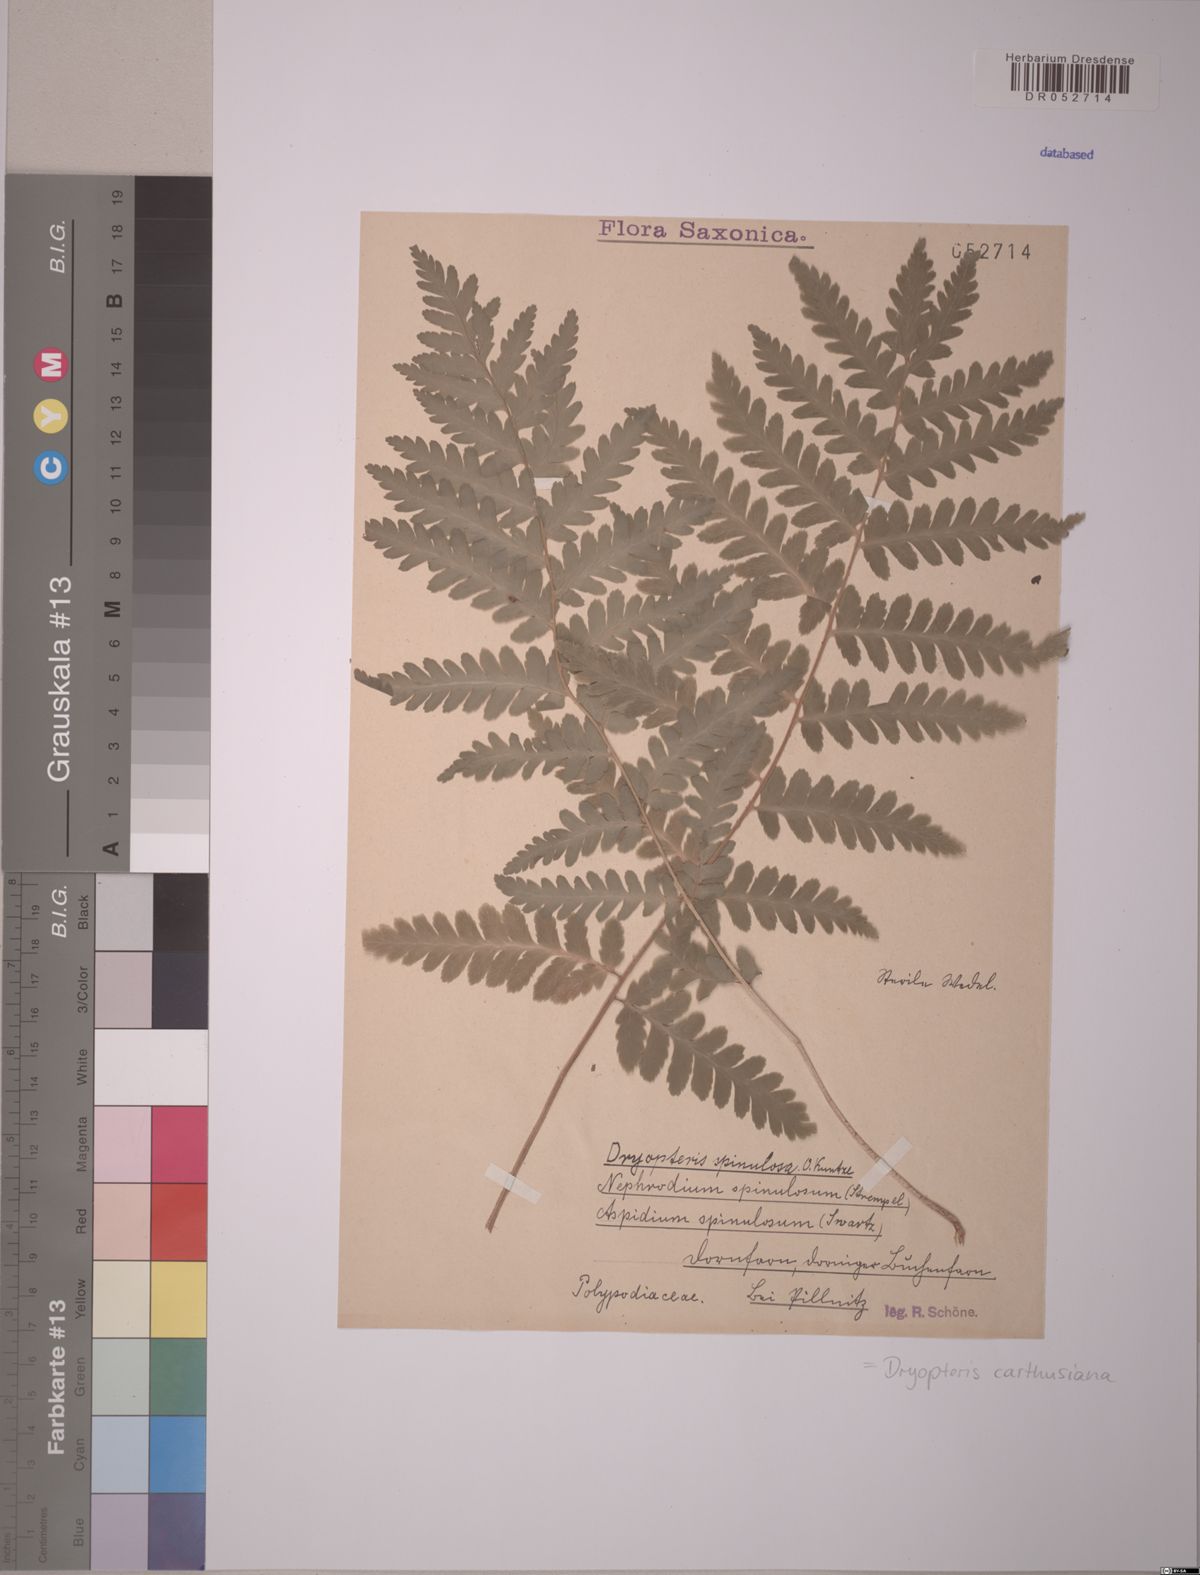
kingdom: Plantae
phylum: Tracheophyta
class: Polypodiopsida
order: Polypodiales
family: Dryopteridaceae
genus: Dryopteris
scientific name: Dryopteris carthusiana
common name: Narrow buckler-fern
